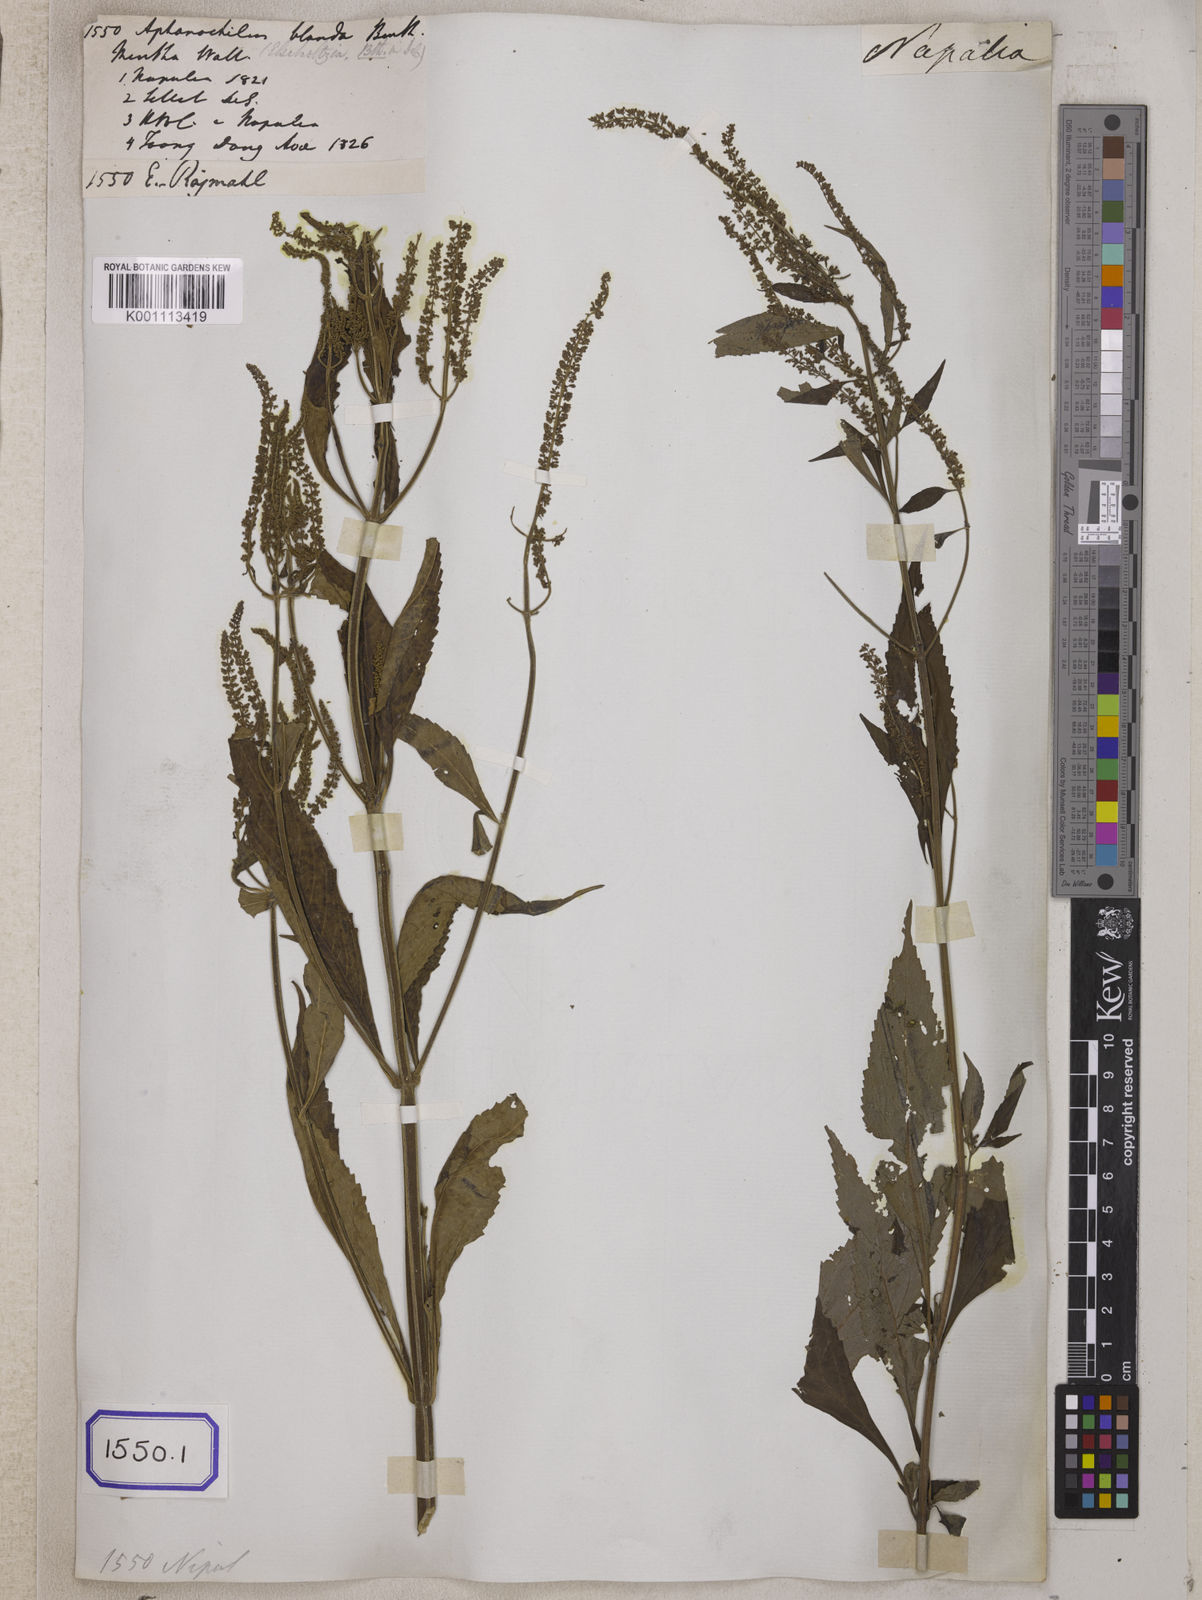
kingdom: Plantae
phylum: Tracheophyta
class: Magnoliopsida
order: Lamiales
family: Lamiaceae
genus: Elsholtzia
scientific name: Elsholtzia blanda
